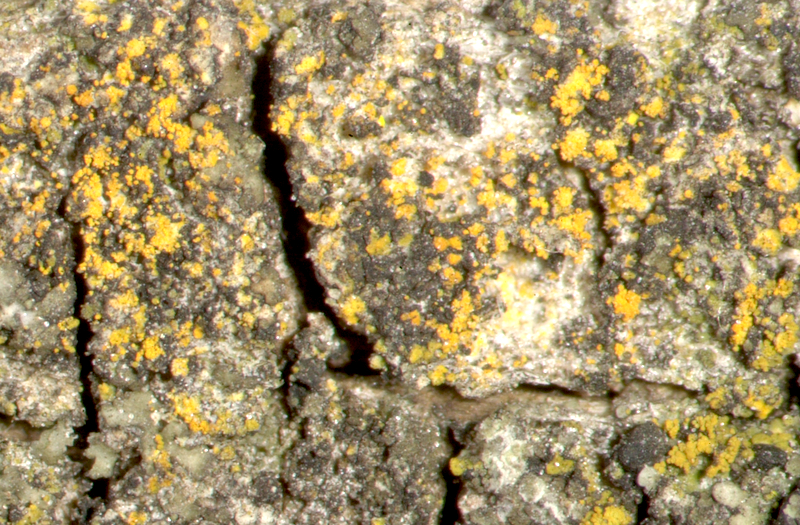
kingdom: Fungi
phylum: Ascomycota
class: Candelariomycetes
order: Candelariales
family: Candelariaceae
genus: Candelaria
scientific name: Candelaria concolor
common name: Candleflame lichen
